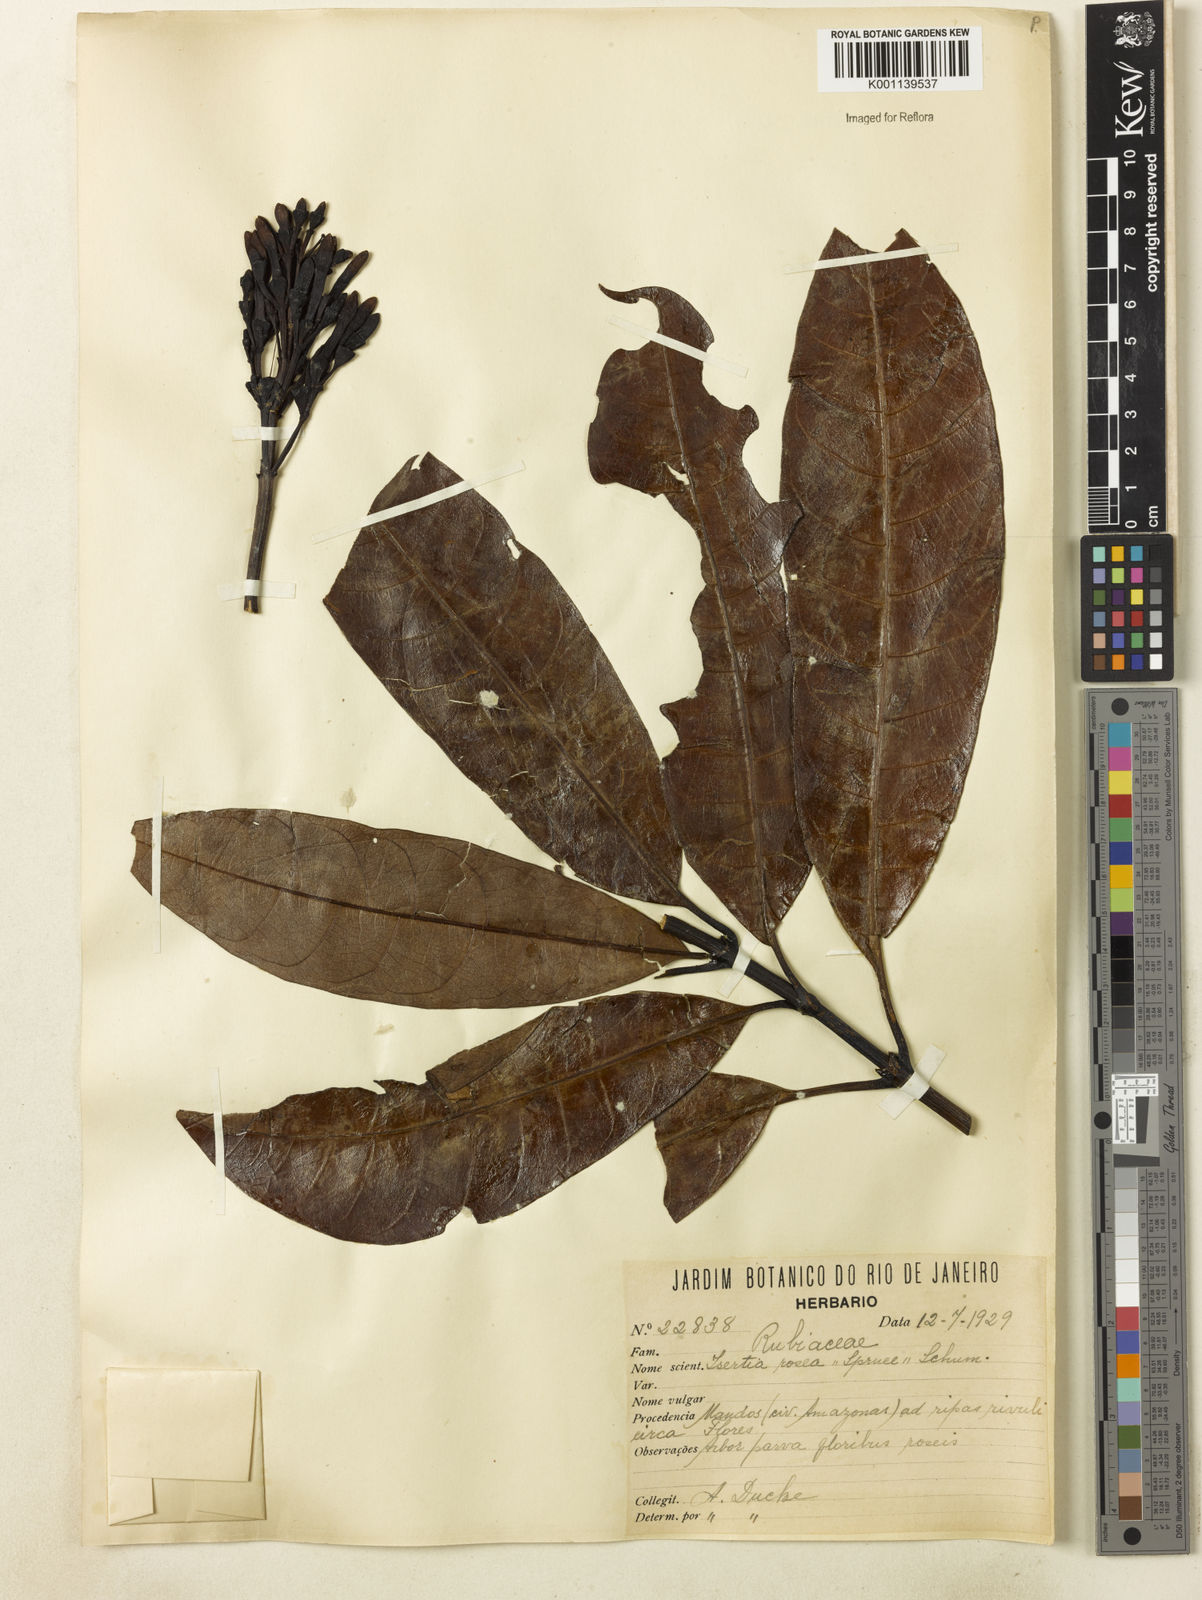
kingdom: Plantae
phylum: Tracheophyta
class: Magnoliopsida
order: Gentianales
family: Rubiaceae
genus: Isertia
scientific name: Isertia rosea
